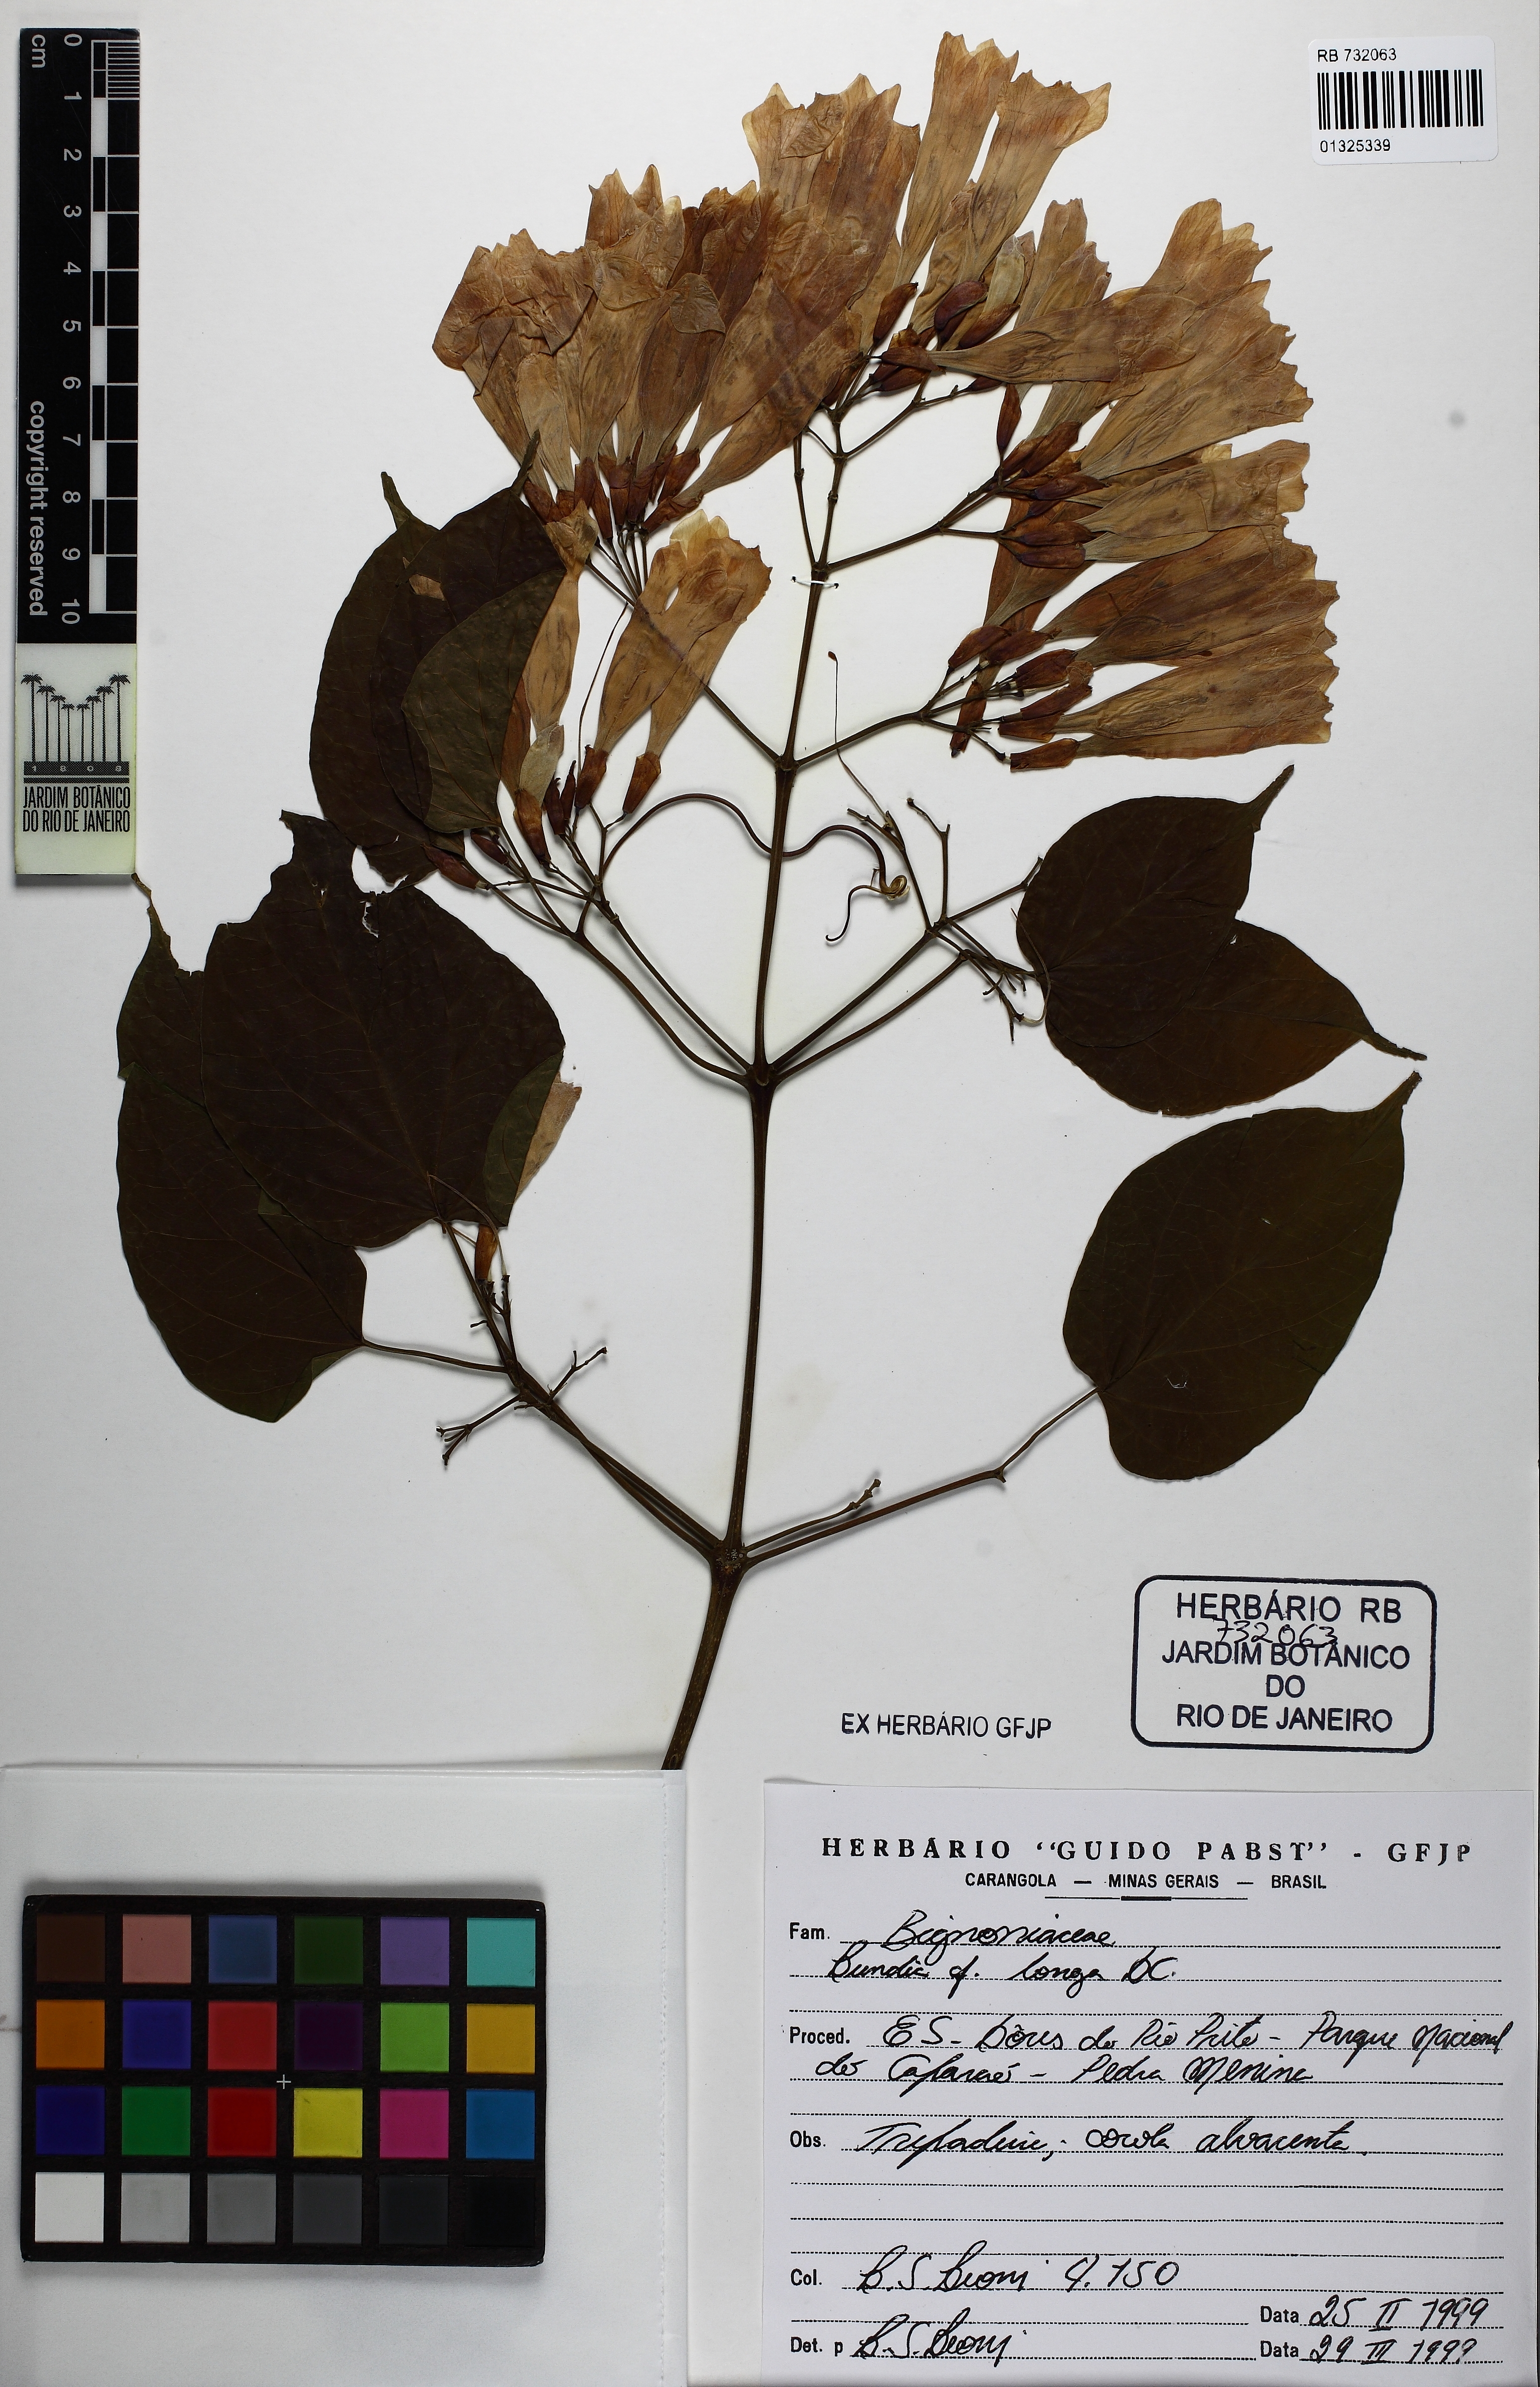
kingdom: Plantae
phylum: Tracheophyta
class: Magnoliopsida
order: Lamiales
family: Bignoniaceae
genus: Lundia
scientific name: Lundia longa
